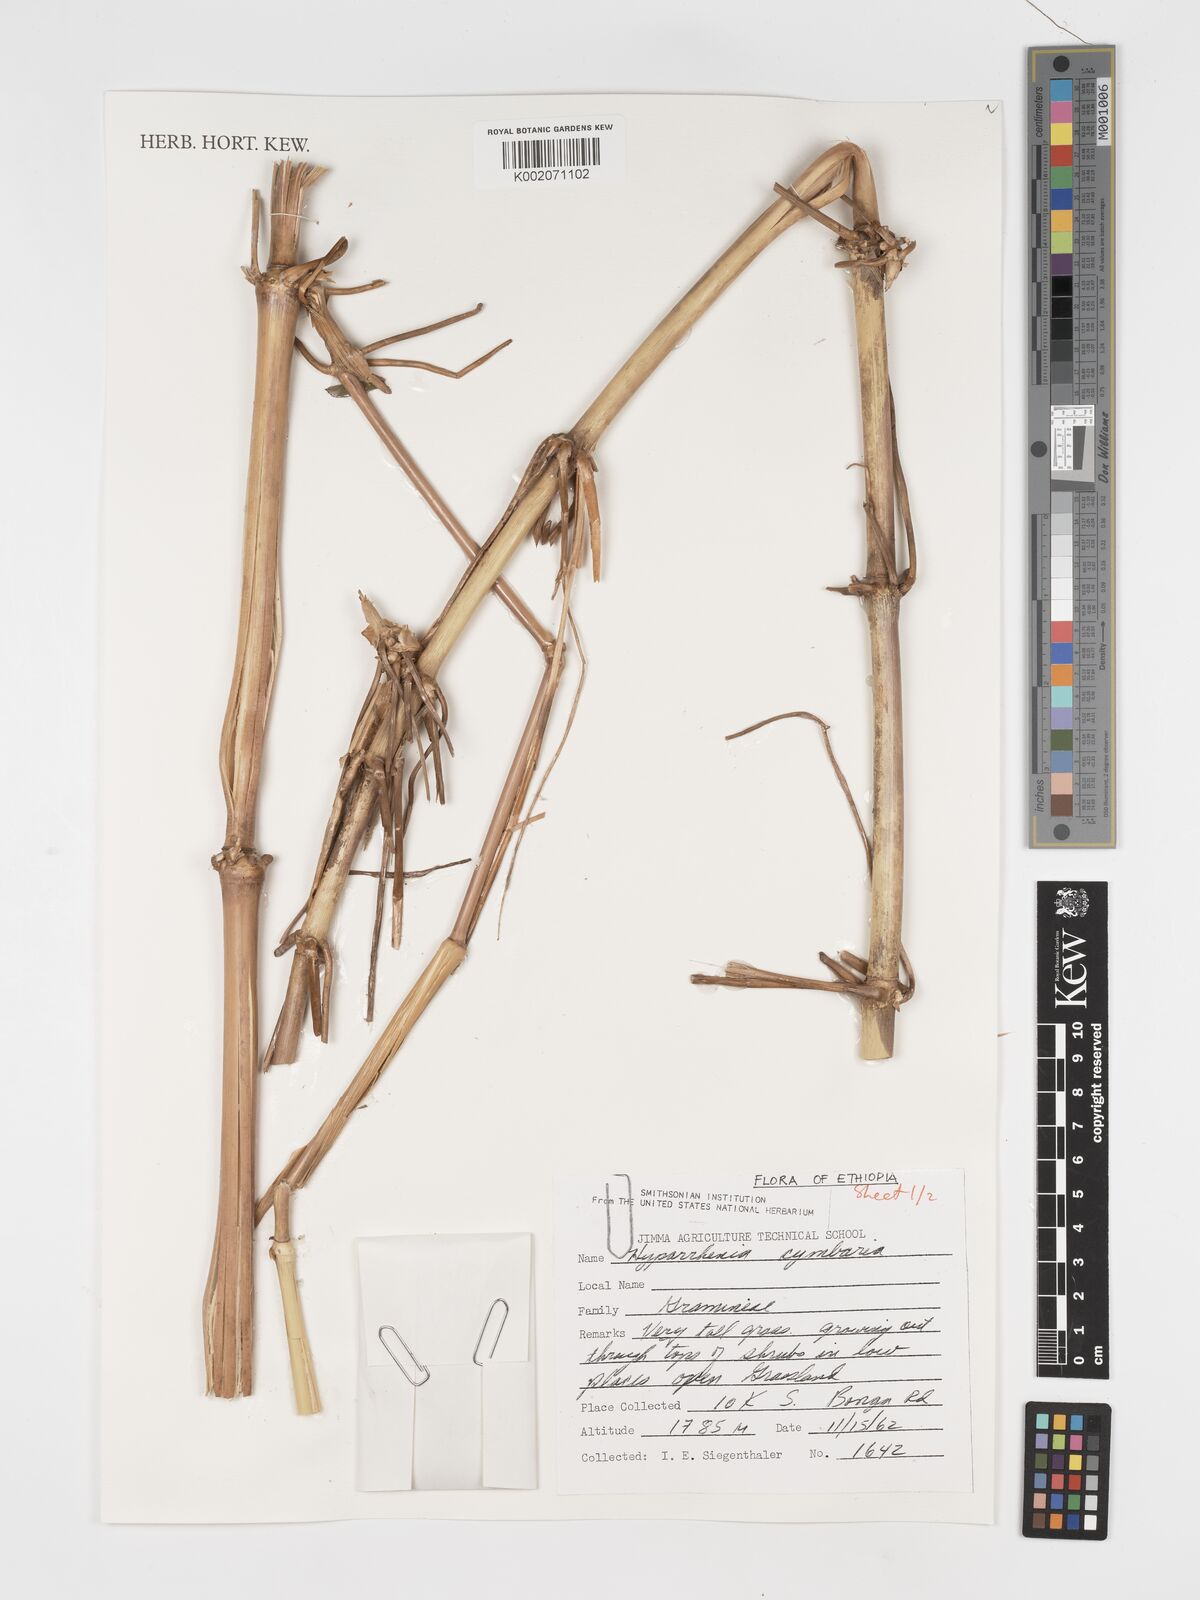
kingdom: Plantae
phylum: Tracheophyta
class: Liliopsida
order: Poales
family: Poaceae
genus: Hyparrhenia
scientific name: Hyparrhenia cymbaria
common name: Boat thatching grass
